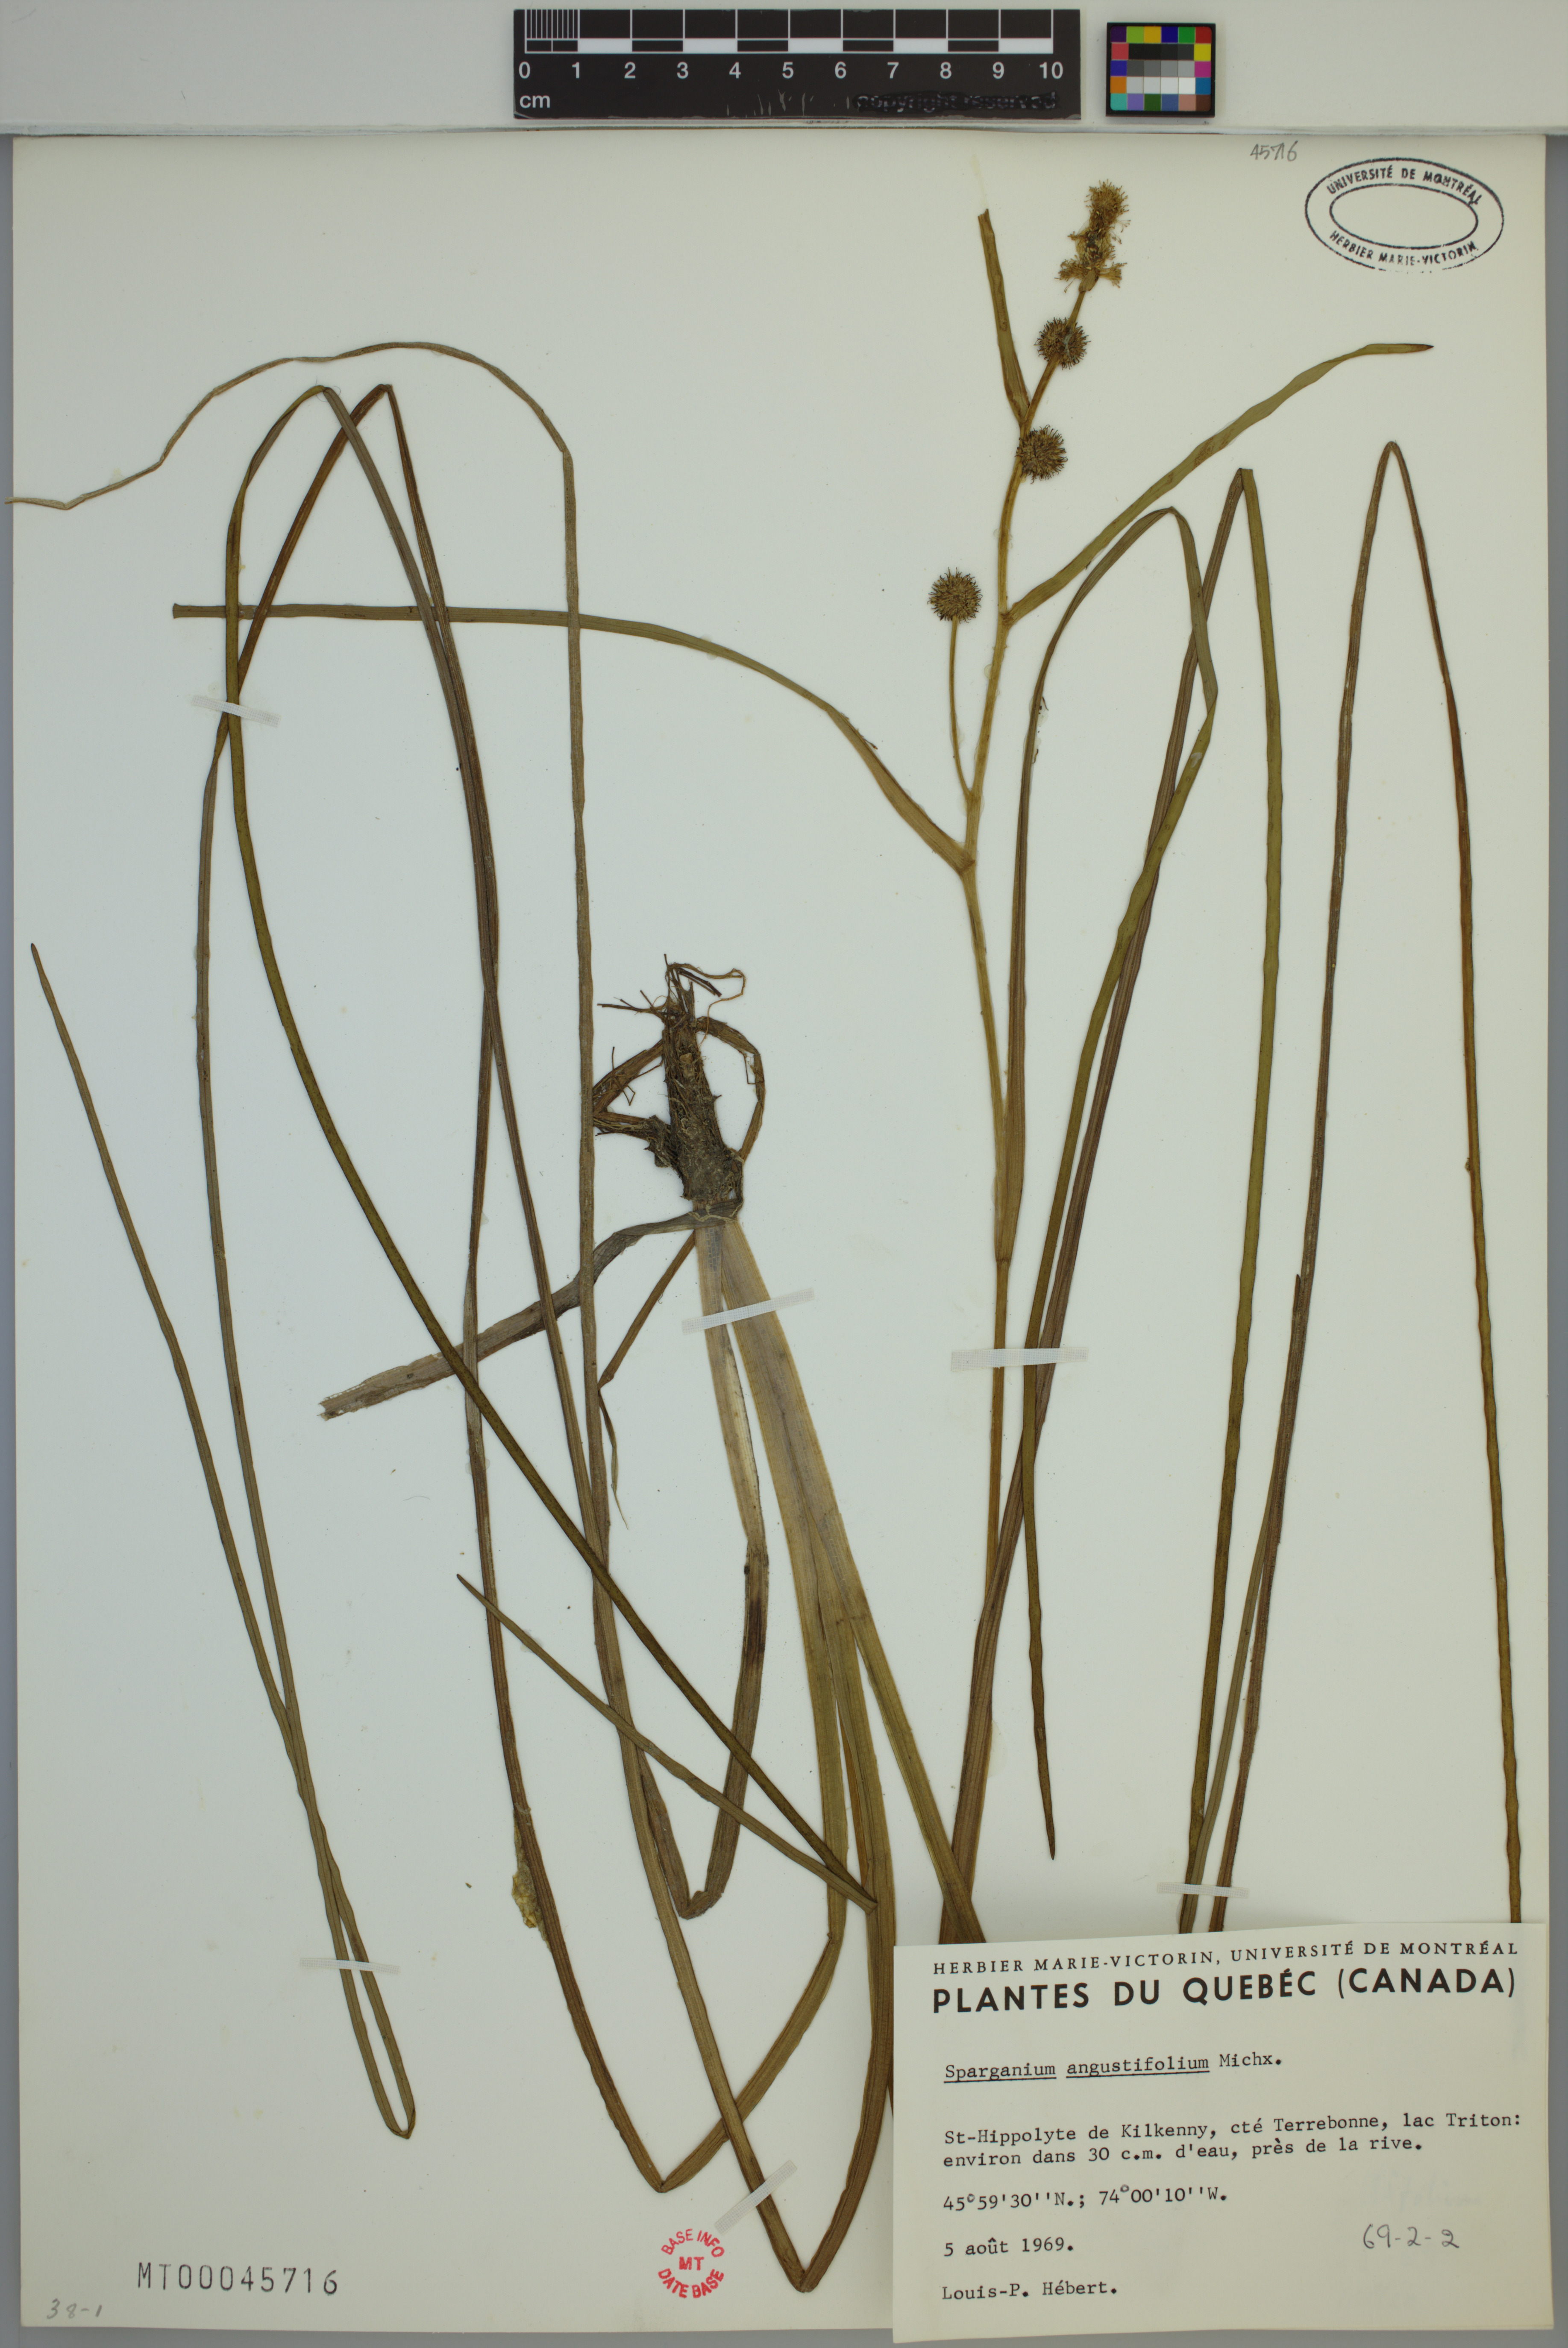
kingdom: Plantae
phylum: Tracheophyta
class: Liliopsida
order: Poales
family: Typhaceae
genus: Sparganium
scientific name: Sparganium angustifolium
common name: Floating bur-reed
